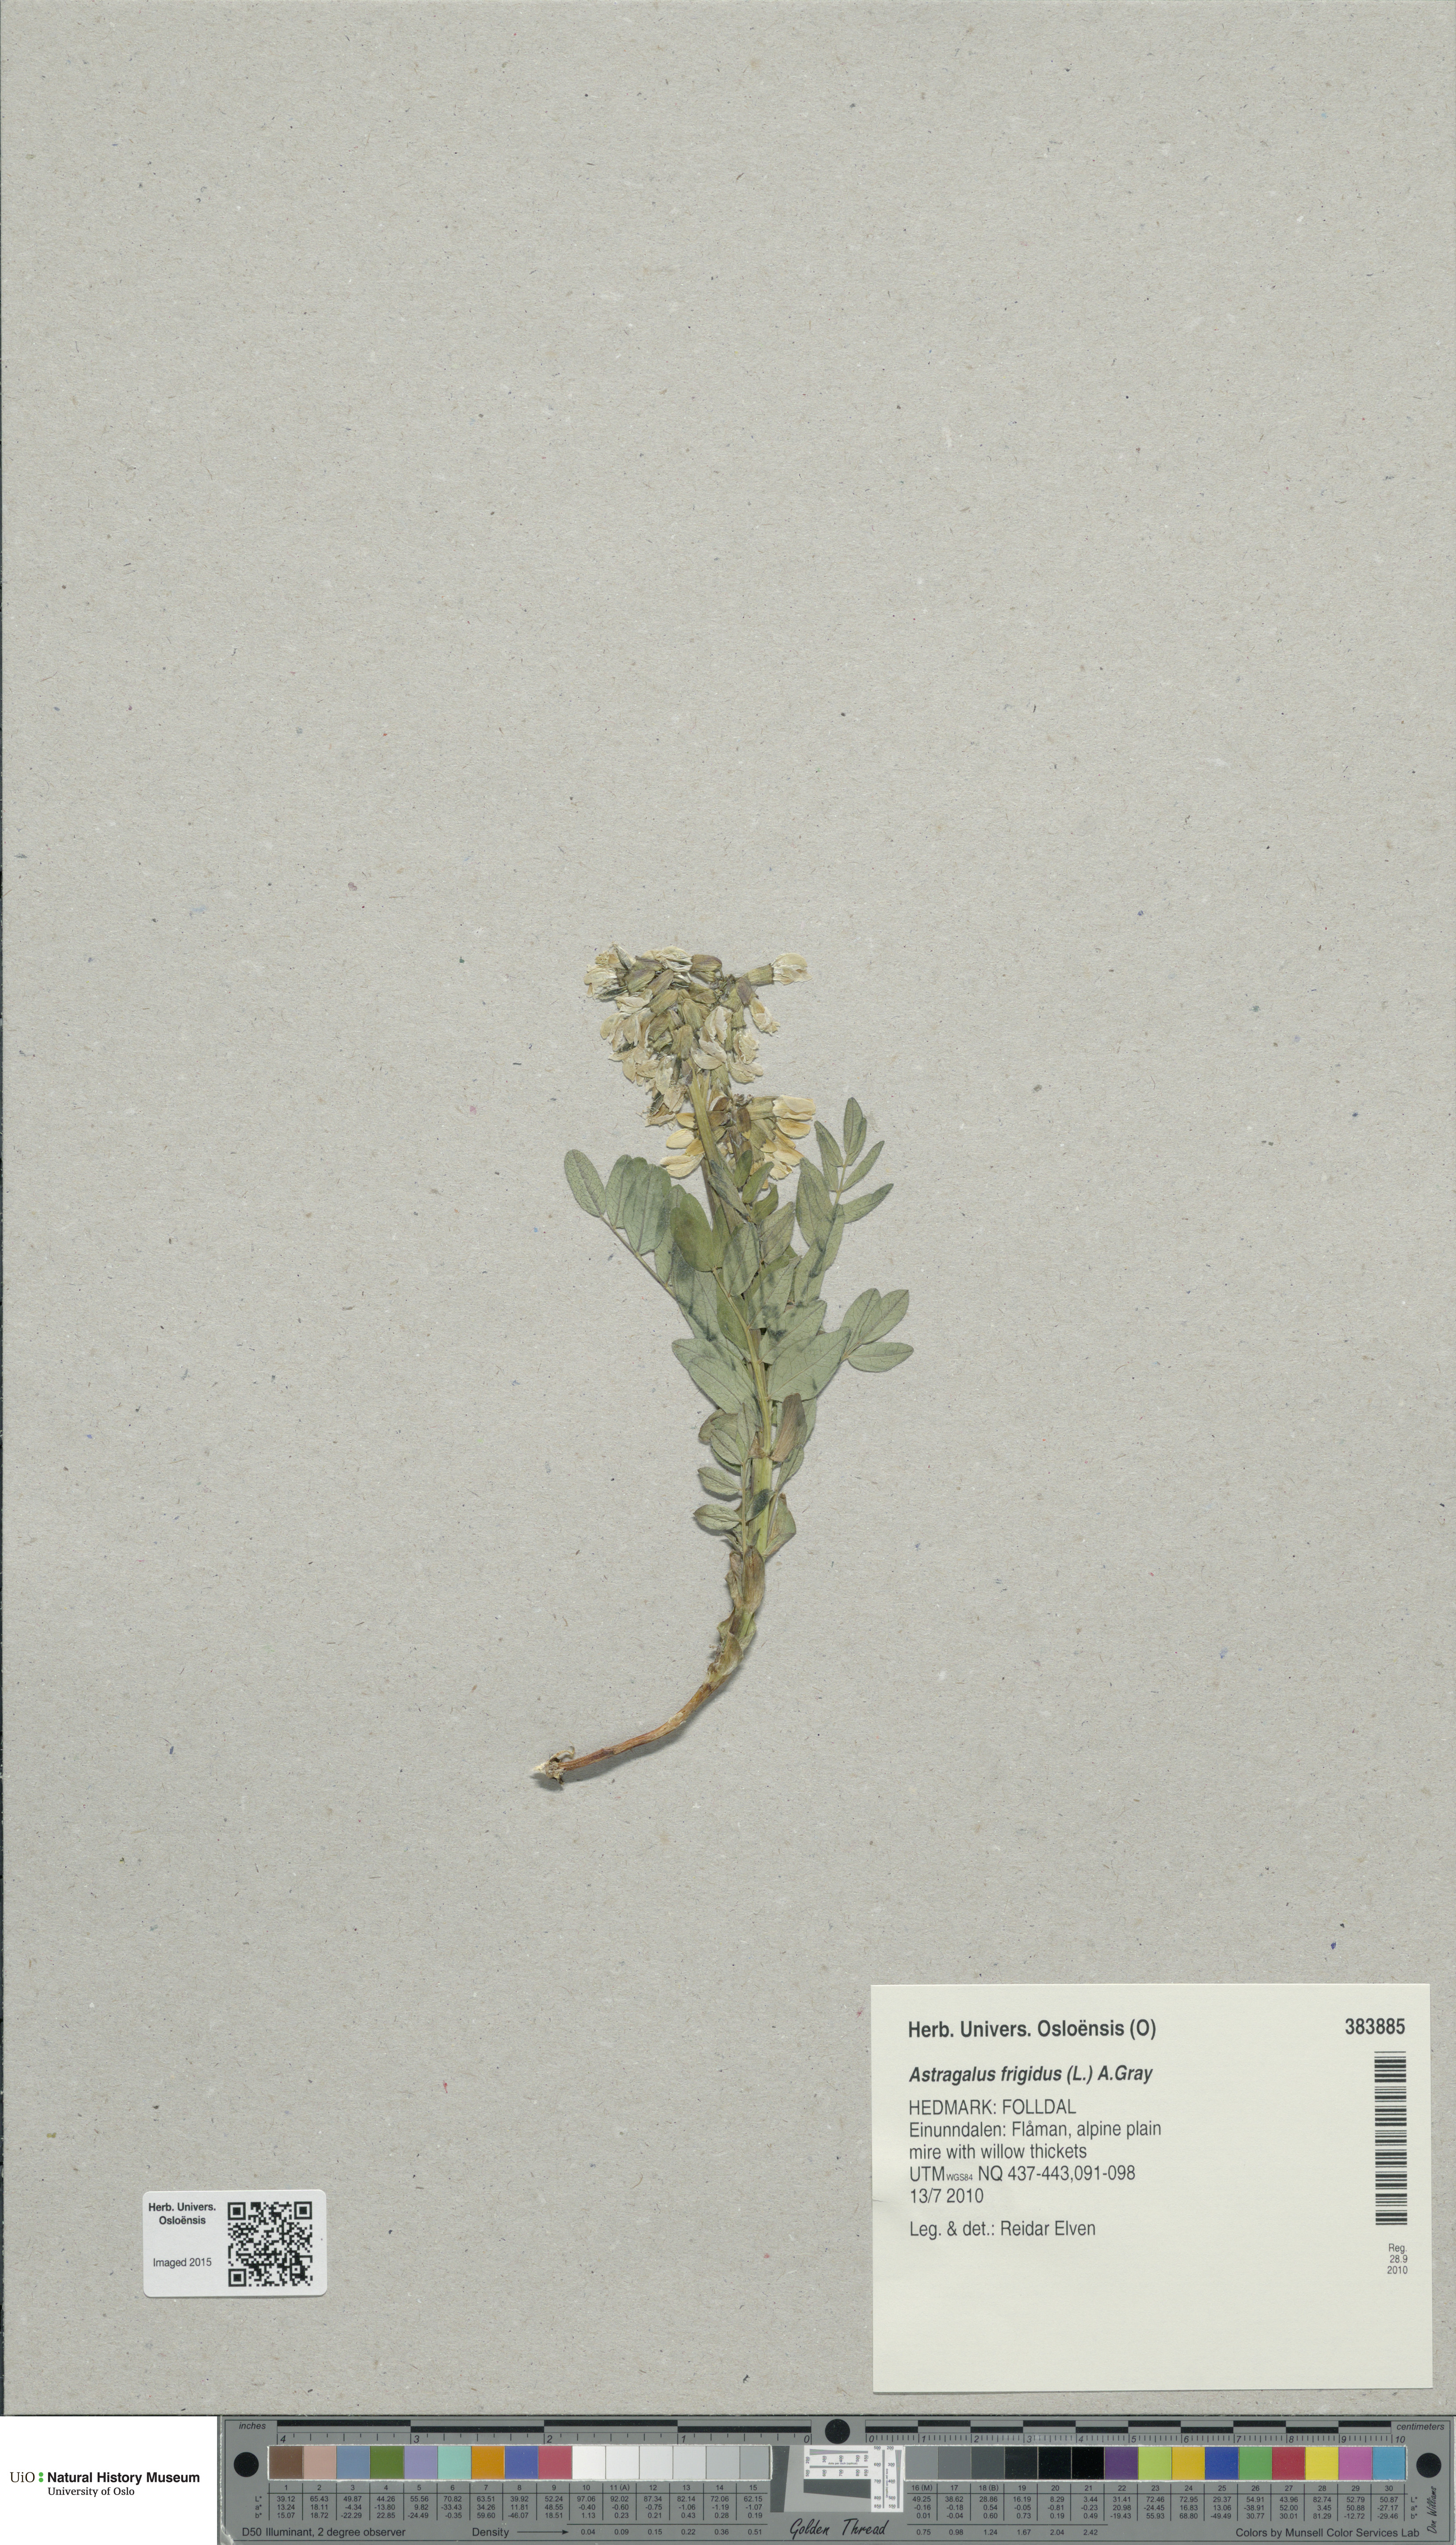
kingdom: Plantae
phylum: Tracheophyta
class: Magnoliopsida
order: Fabales
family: Fabaceae
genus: Astragalus
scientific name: Astragalus frigidus
